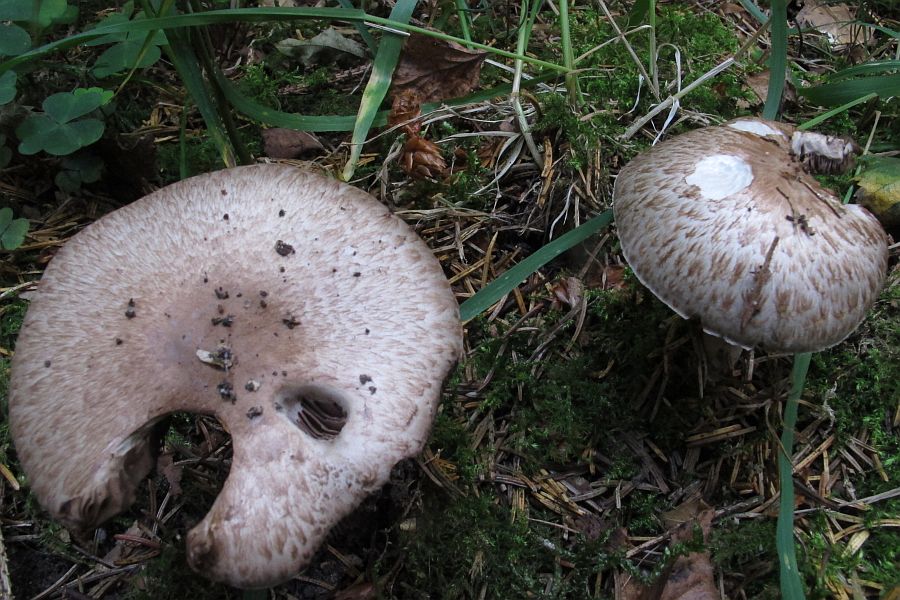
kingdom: Fungi
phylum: Basidiomycota
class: Agaricomycetes
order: Agaricales
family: Agaricaceae
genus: Agaricus
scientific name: Agaricus impudicus
